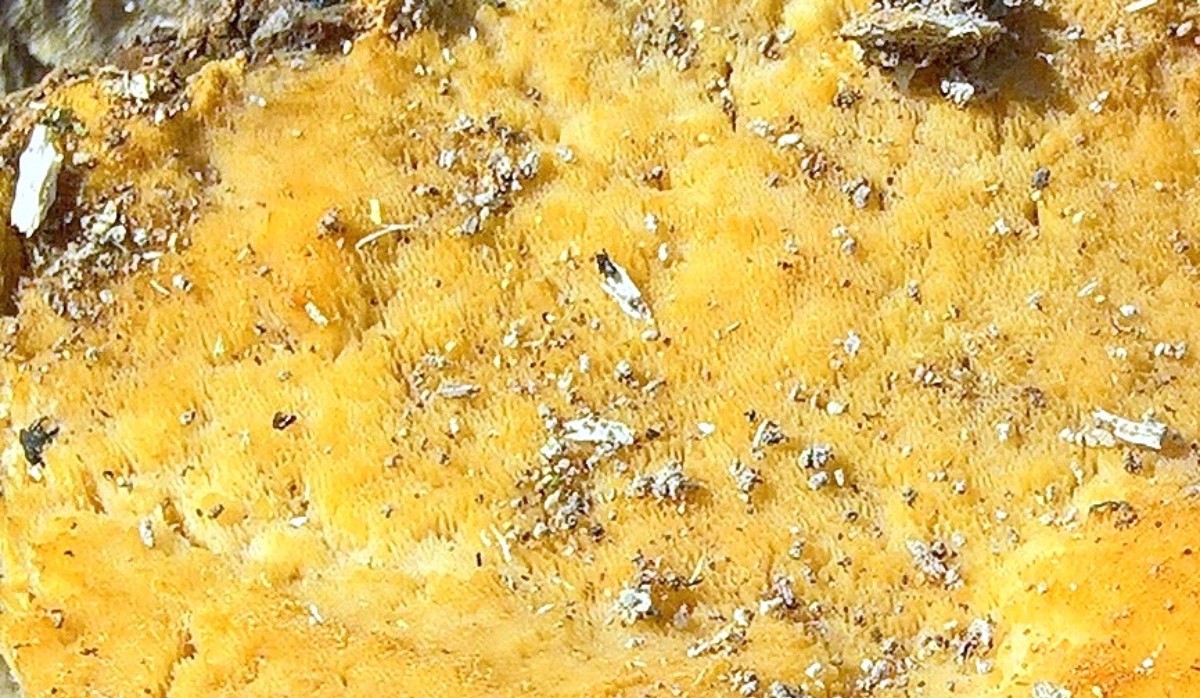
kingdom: Fungi
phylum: Basidiomycota
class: Agaricomycetes
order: Polyporales
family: Ischnodermataceae
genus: Ischnoderma
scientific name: Ischnoderma resinosum
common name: løv-tjæreporesvamp
